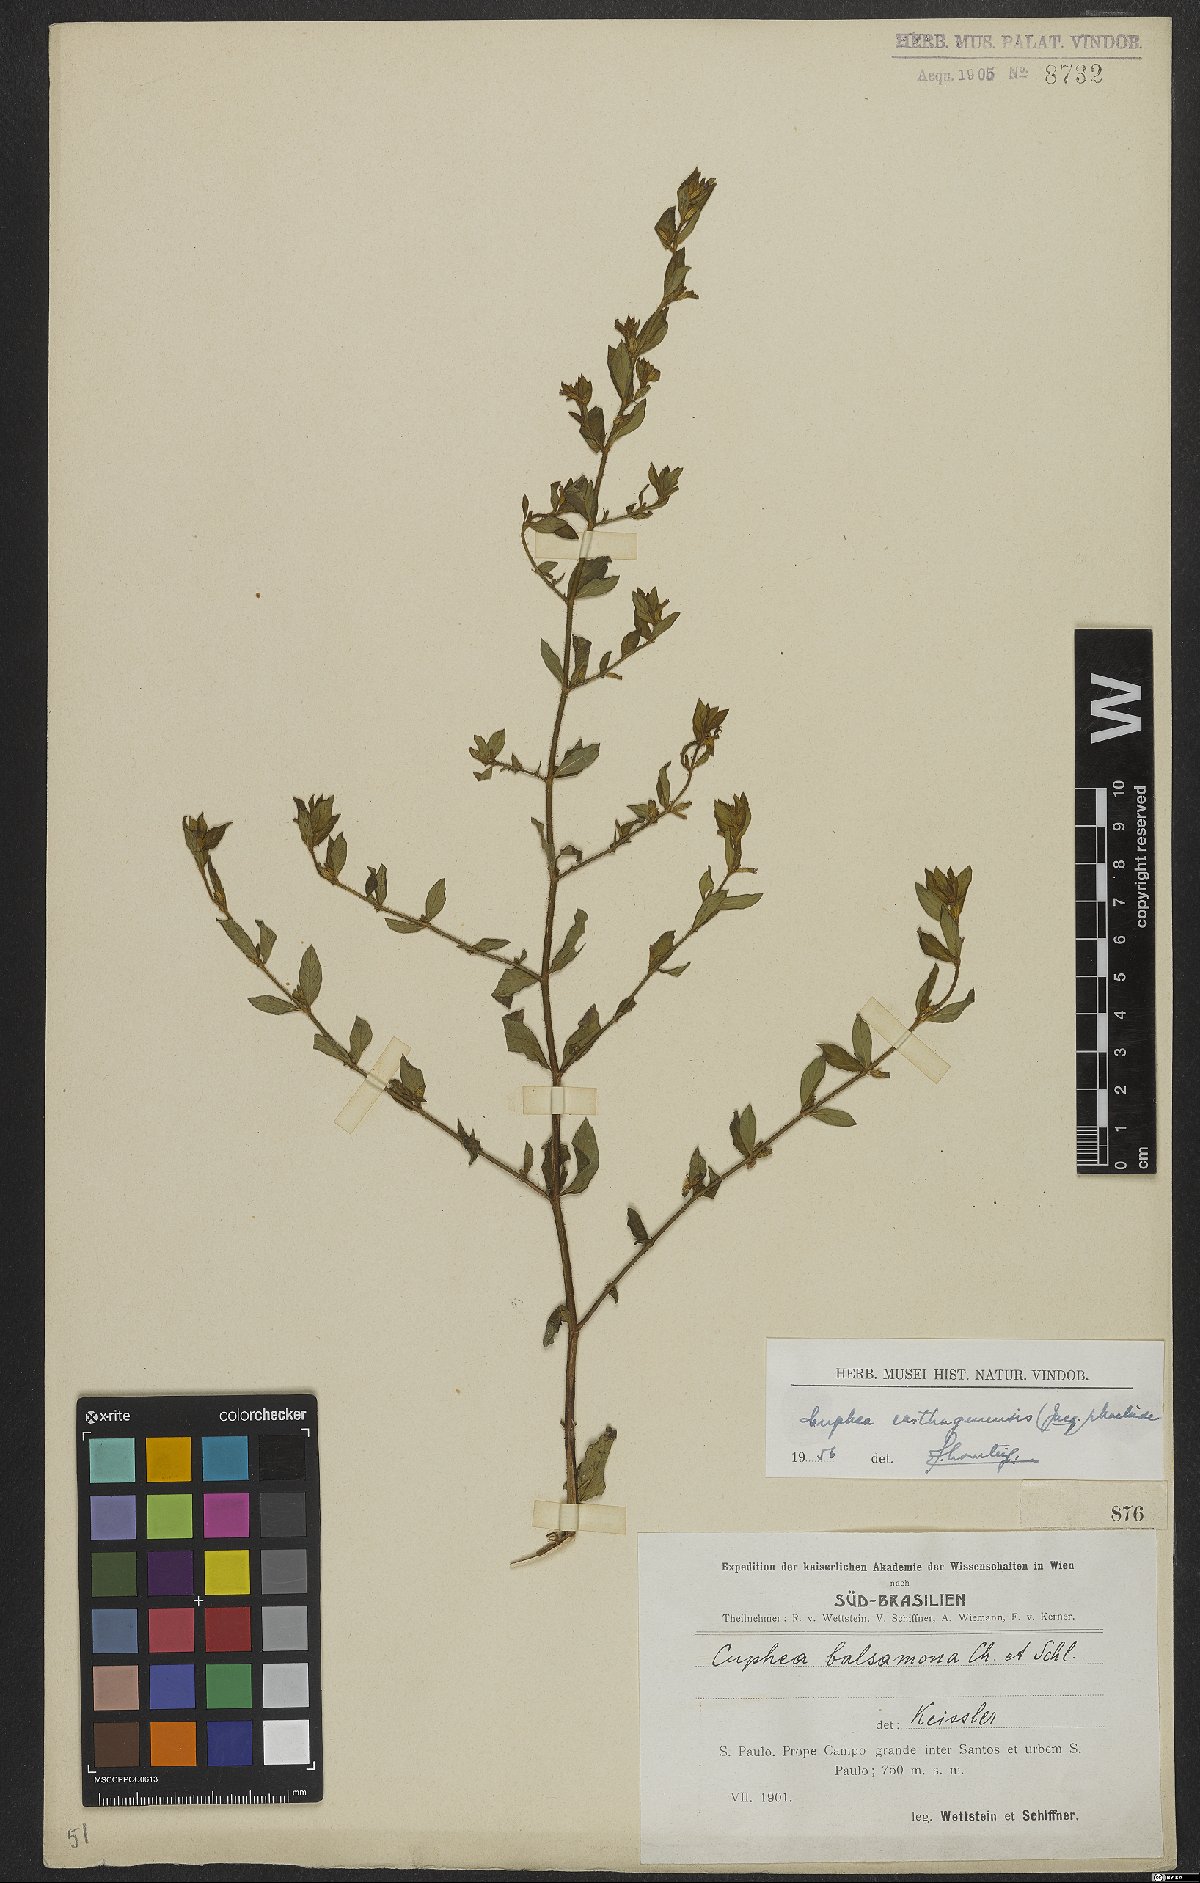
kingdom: Plantae
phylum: Tracheophyta
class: Magnoliopsida
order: Myrtales
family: Lythraceae
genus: Cuphea
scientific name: Cuphea carthagenensis
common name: Colombian waxweed
